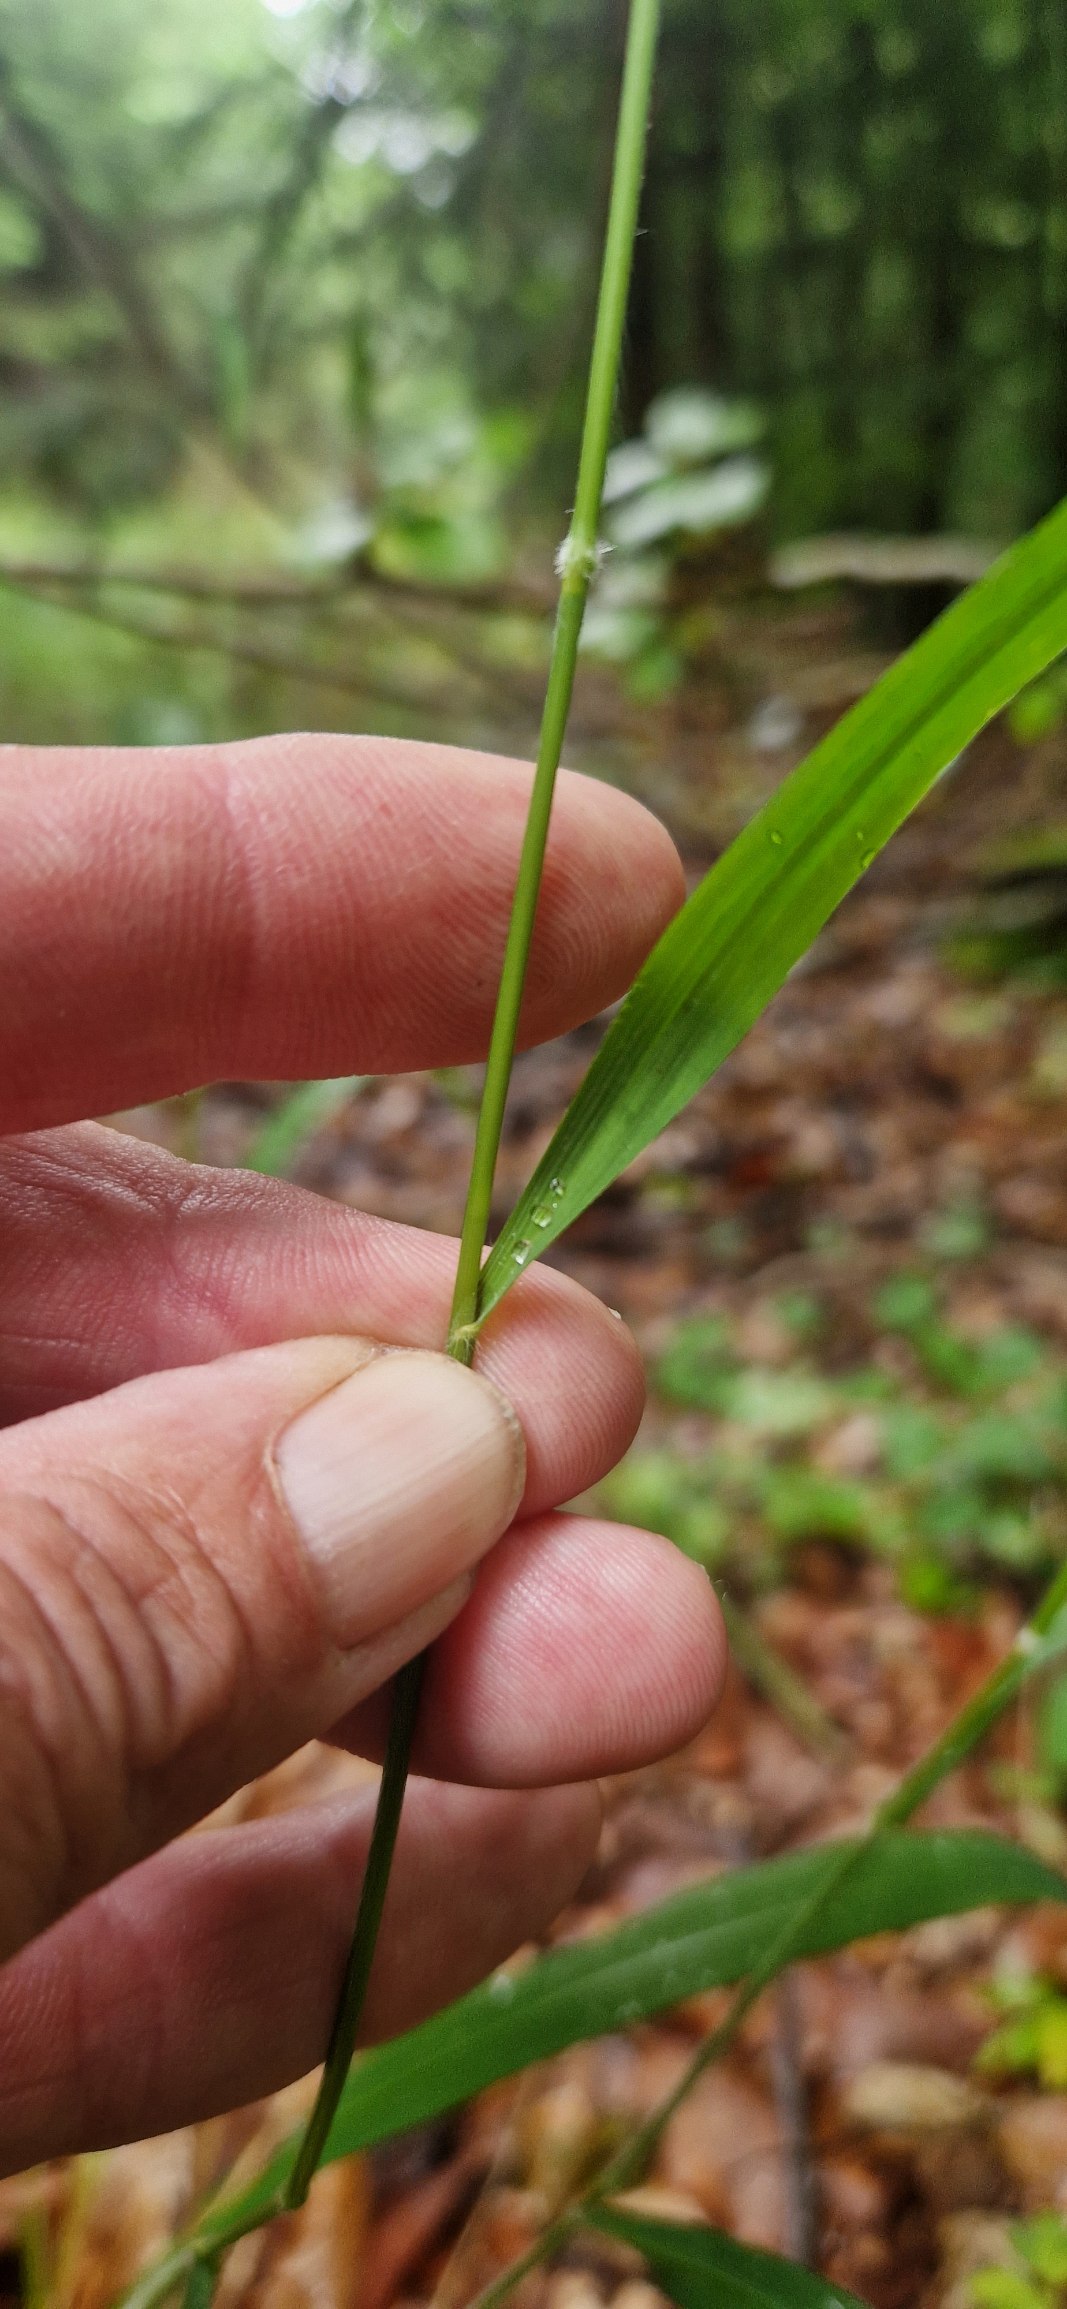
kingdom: Plantae
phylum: Tracheophyta
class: Liliopsida
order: Poales
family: Poaceae
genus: Brachypodium
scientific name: Brachypodium sylvaticum
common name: Skov-stilkaks
